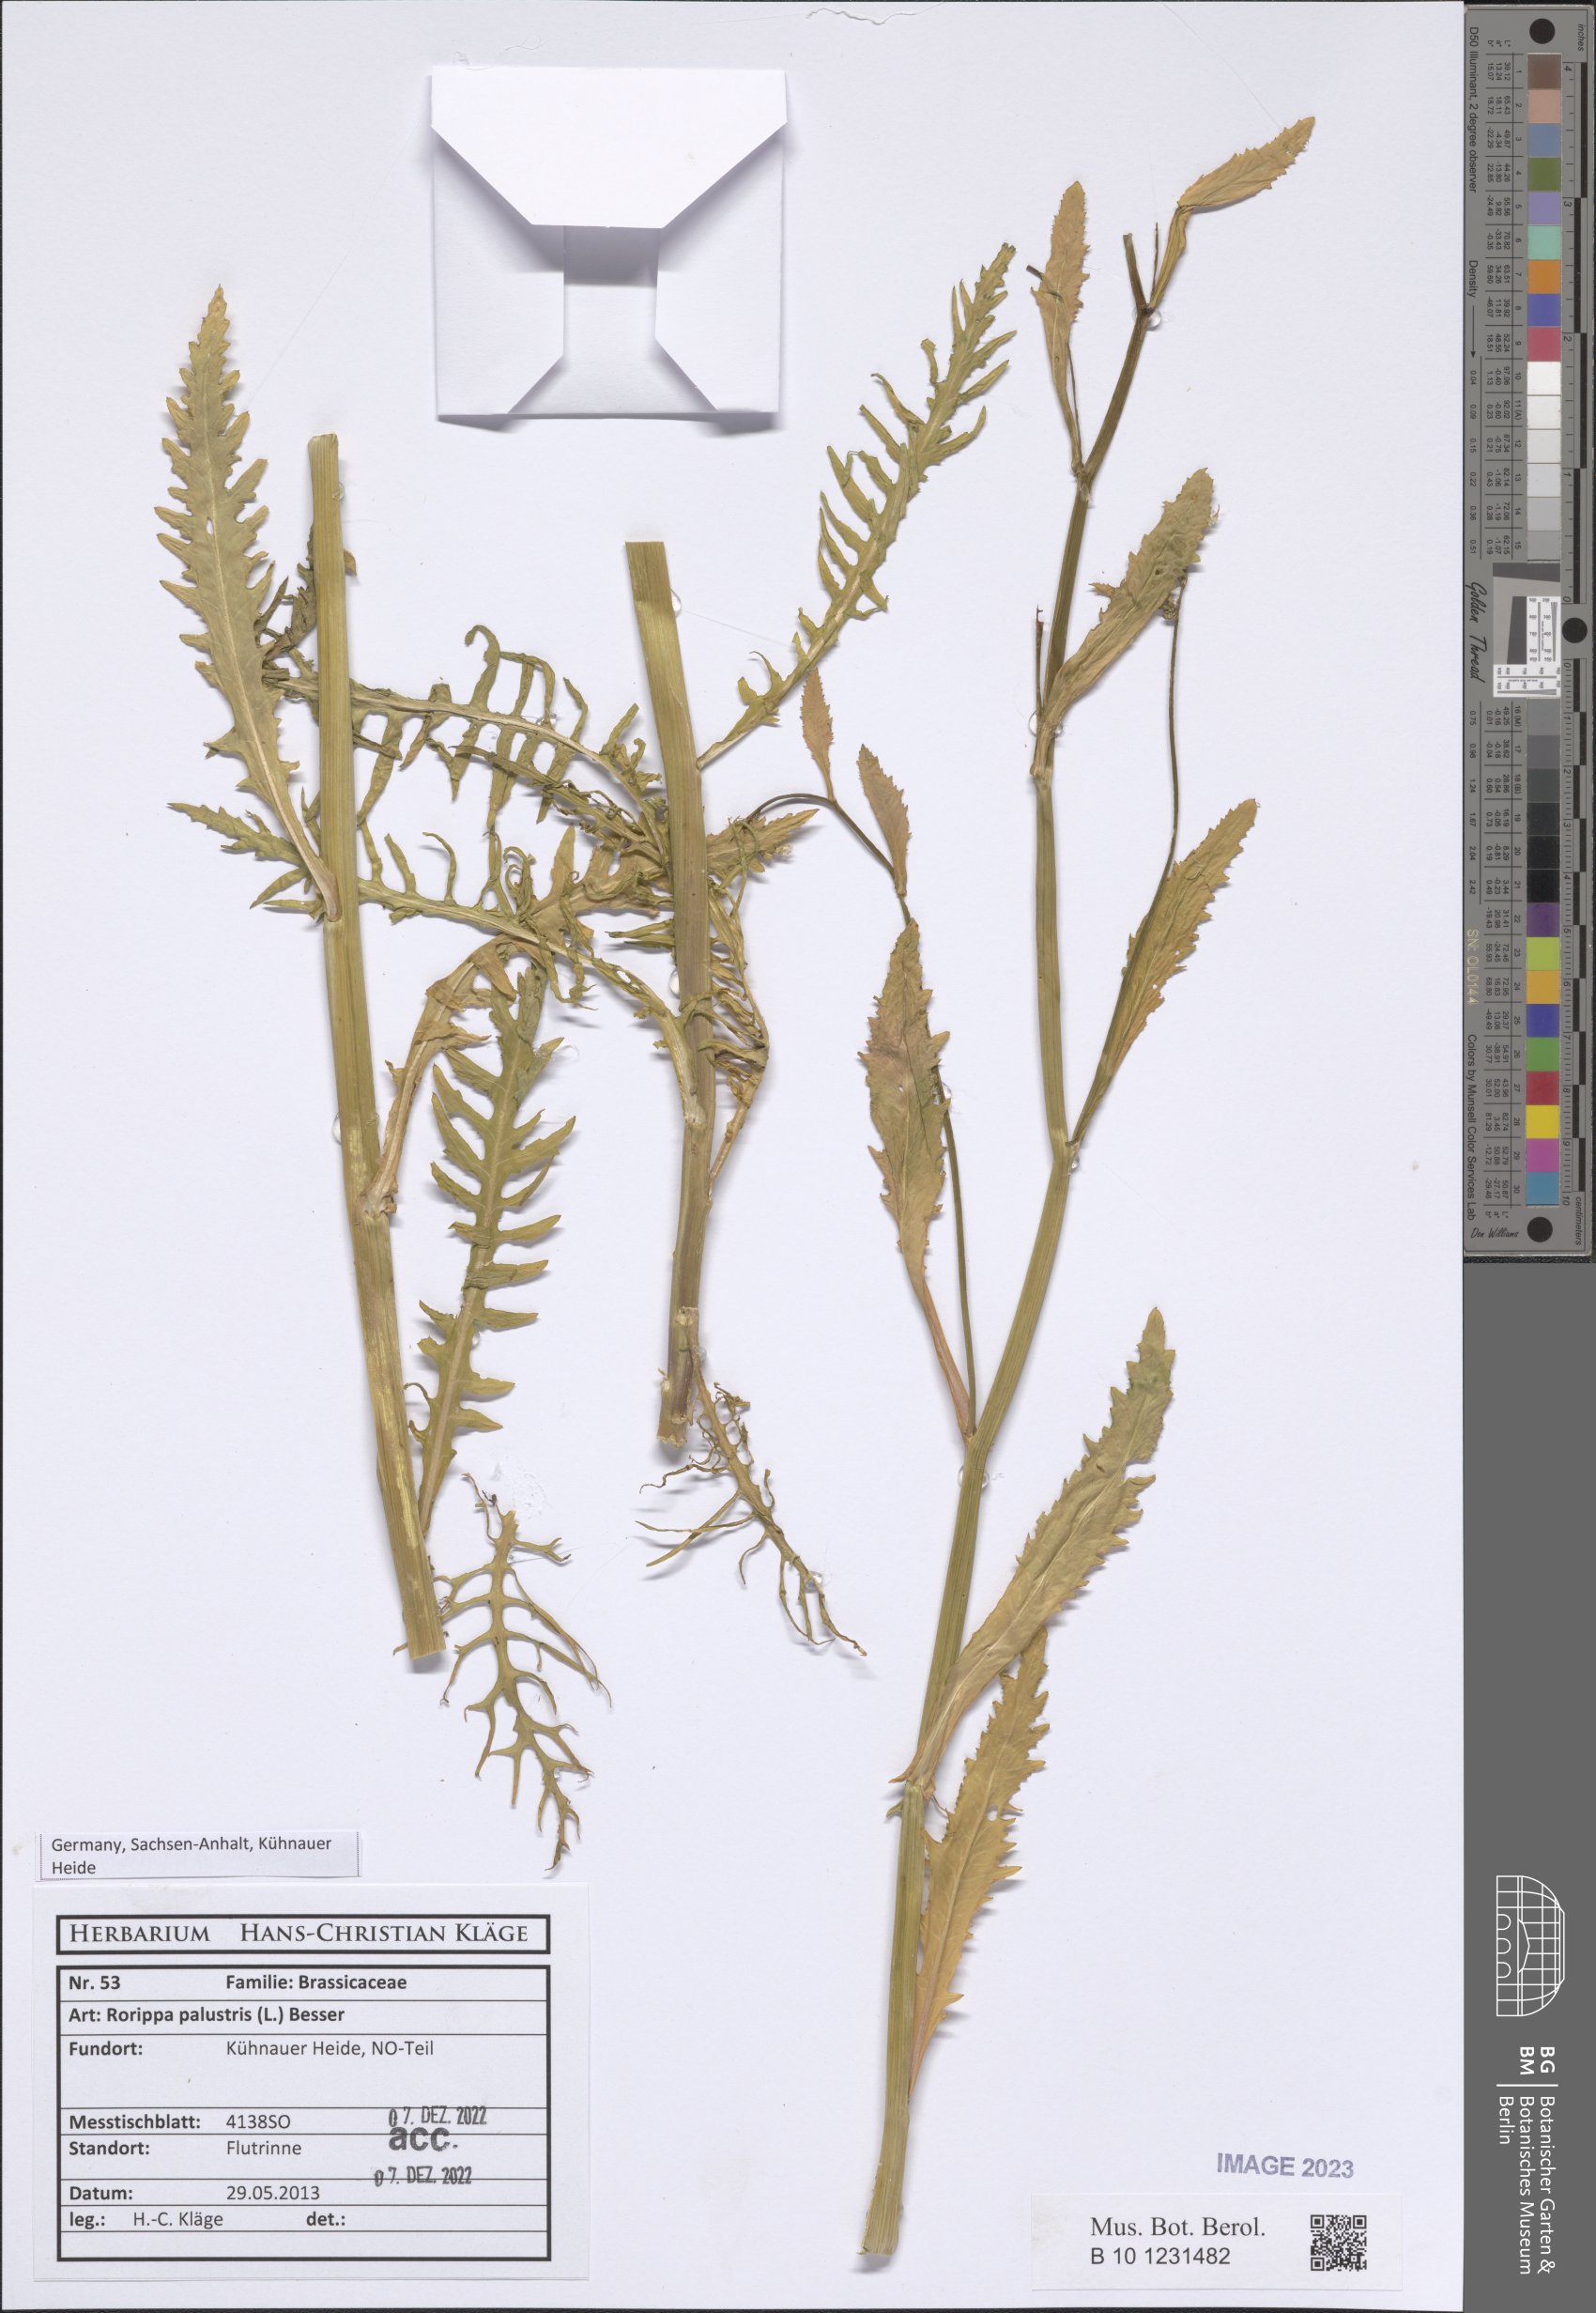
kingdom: Plantae
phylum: Tracheophyta
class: Magnoliopsida
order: Brassicales
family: Brassicaceae
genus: Rorippa
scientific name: Rorippa palustris
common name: Marsh yellow-cress
